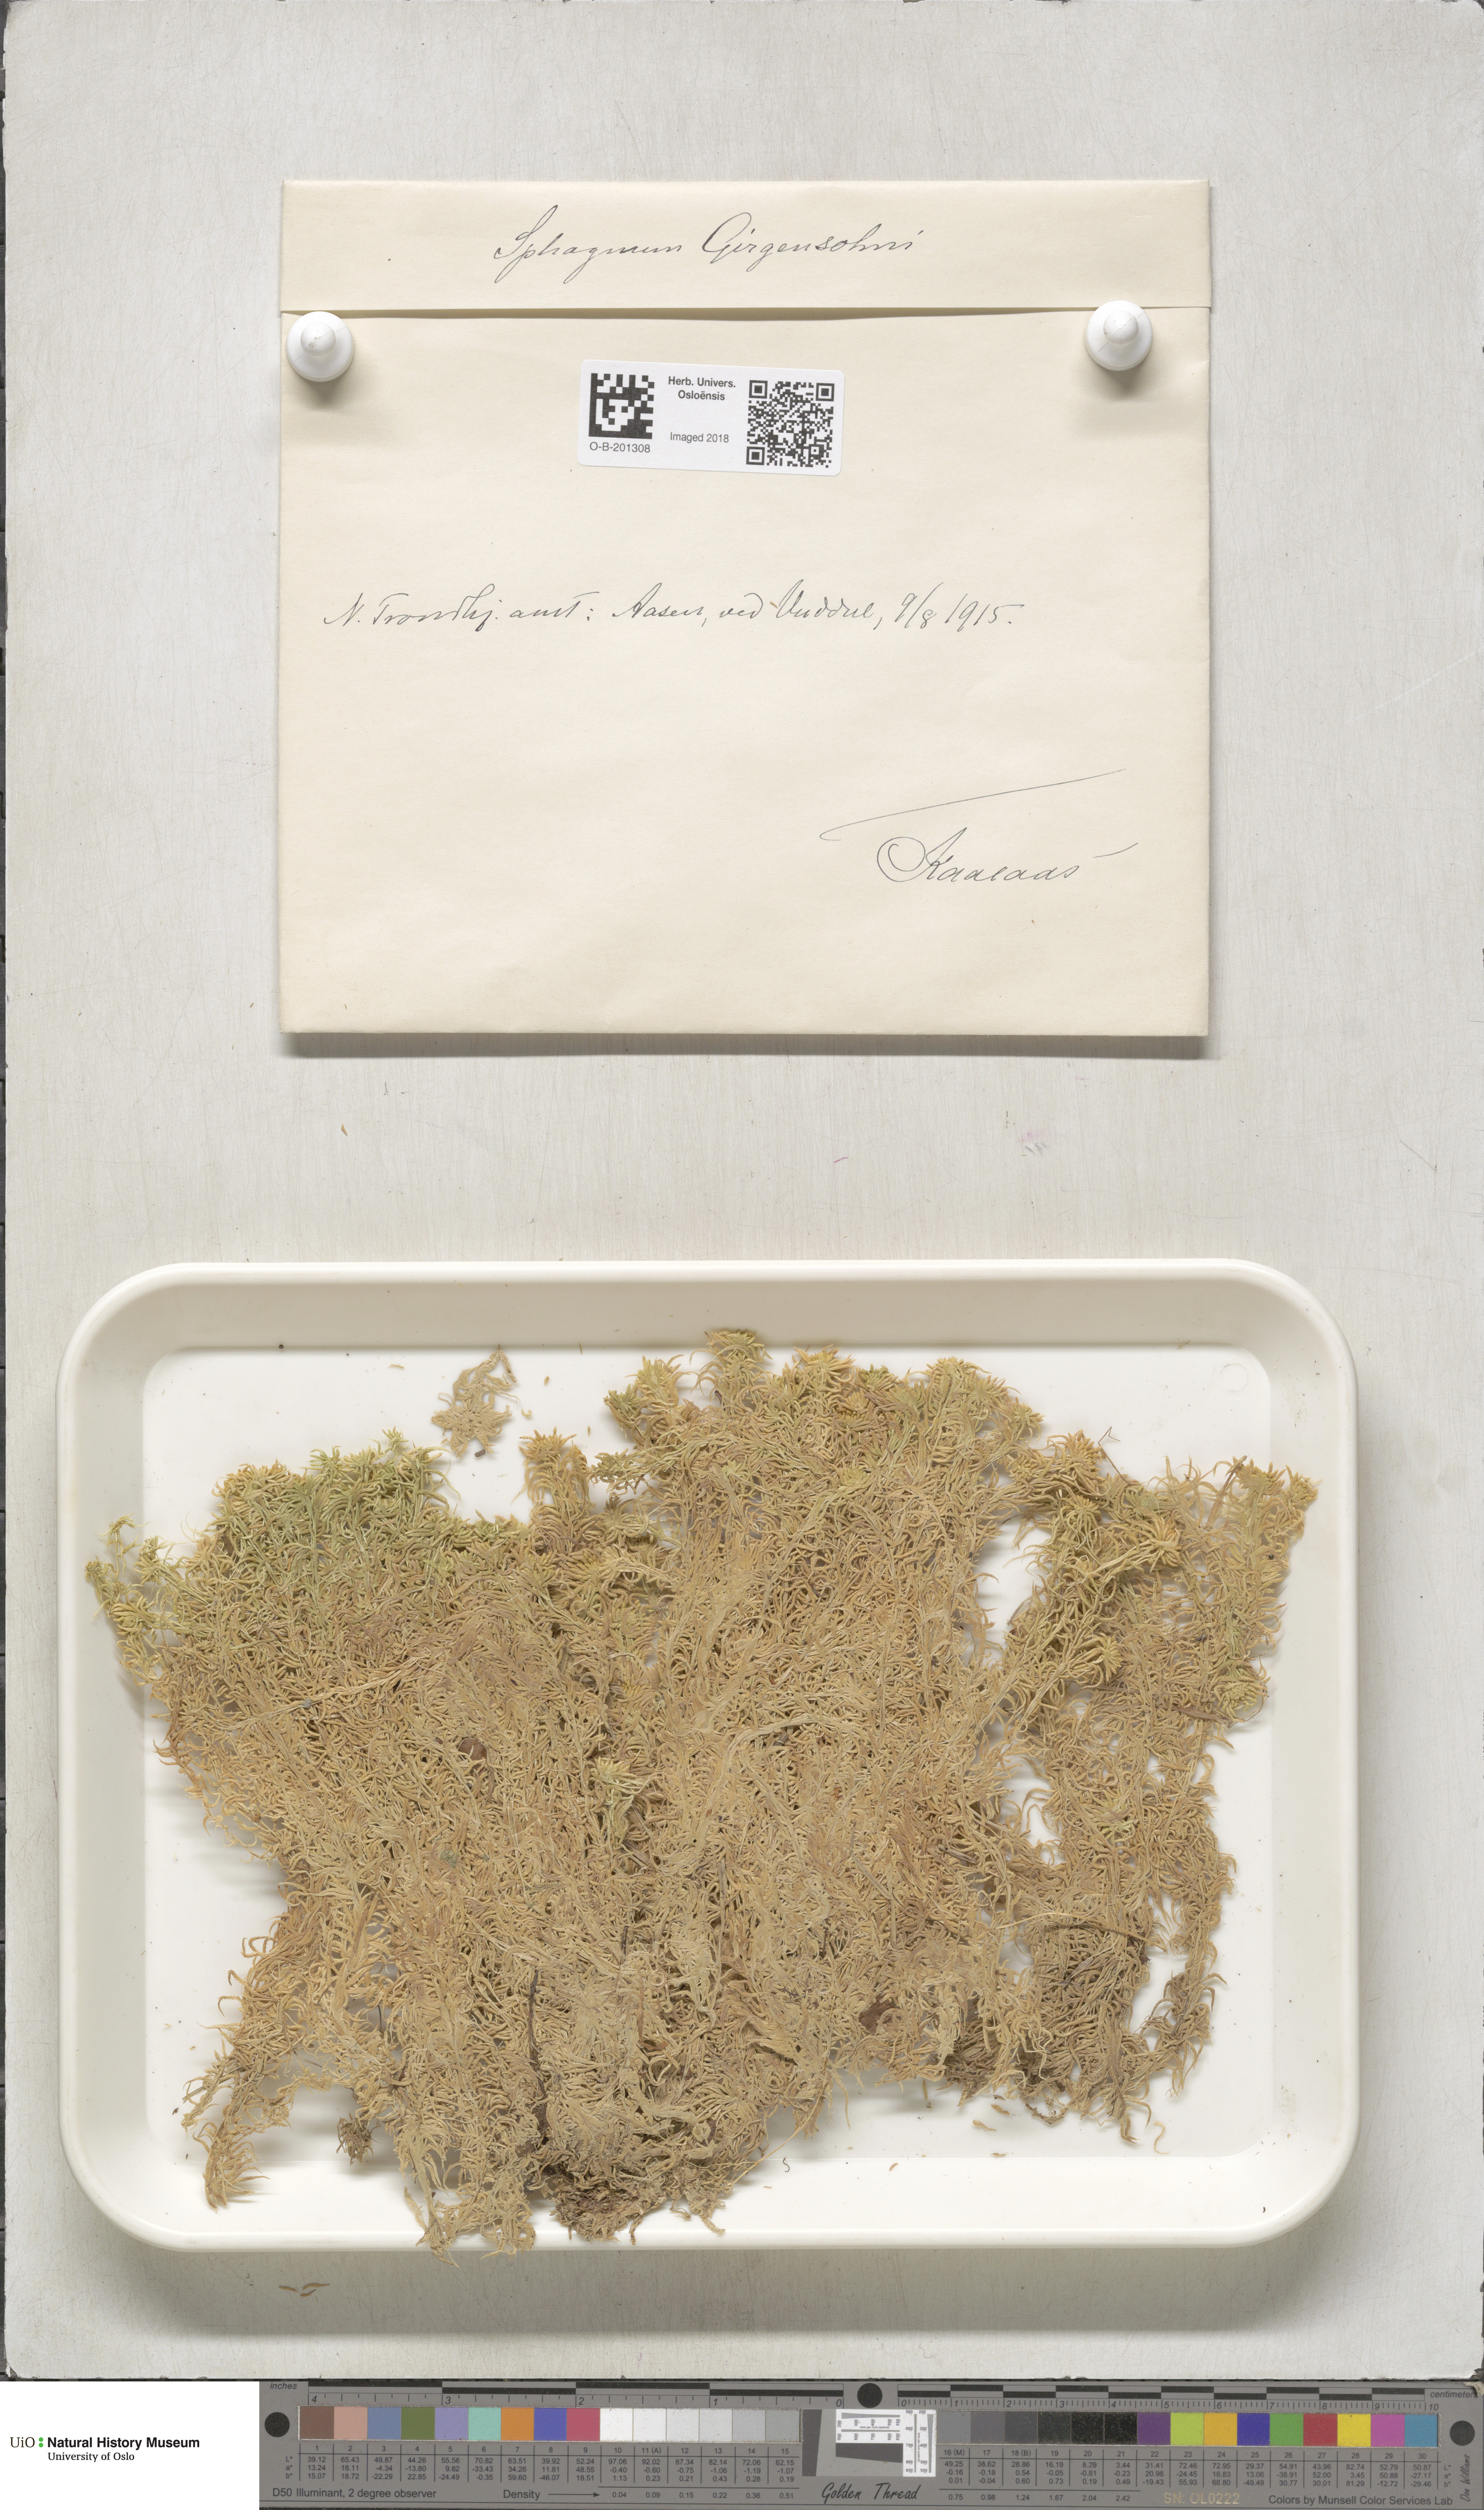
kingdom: Plantae
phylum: Bryophyta
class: Sphagnopsida
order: Sphagnales
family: Sphagnaceae
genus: Sphagnum
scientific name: Sphagnum girgensohnii
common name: Girgensohn's peat moss
